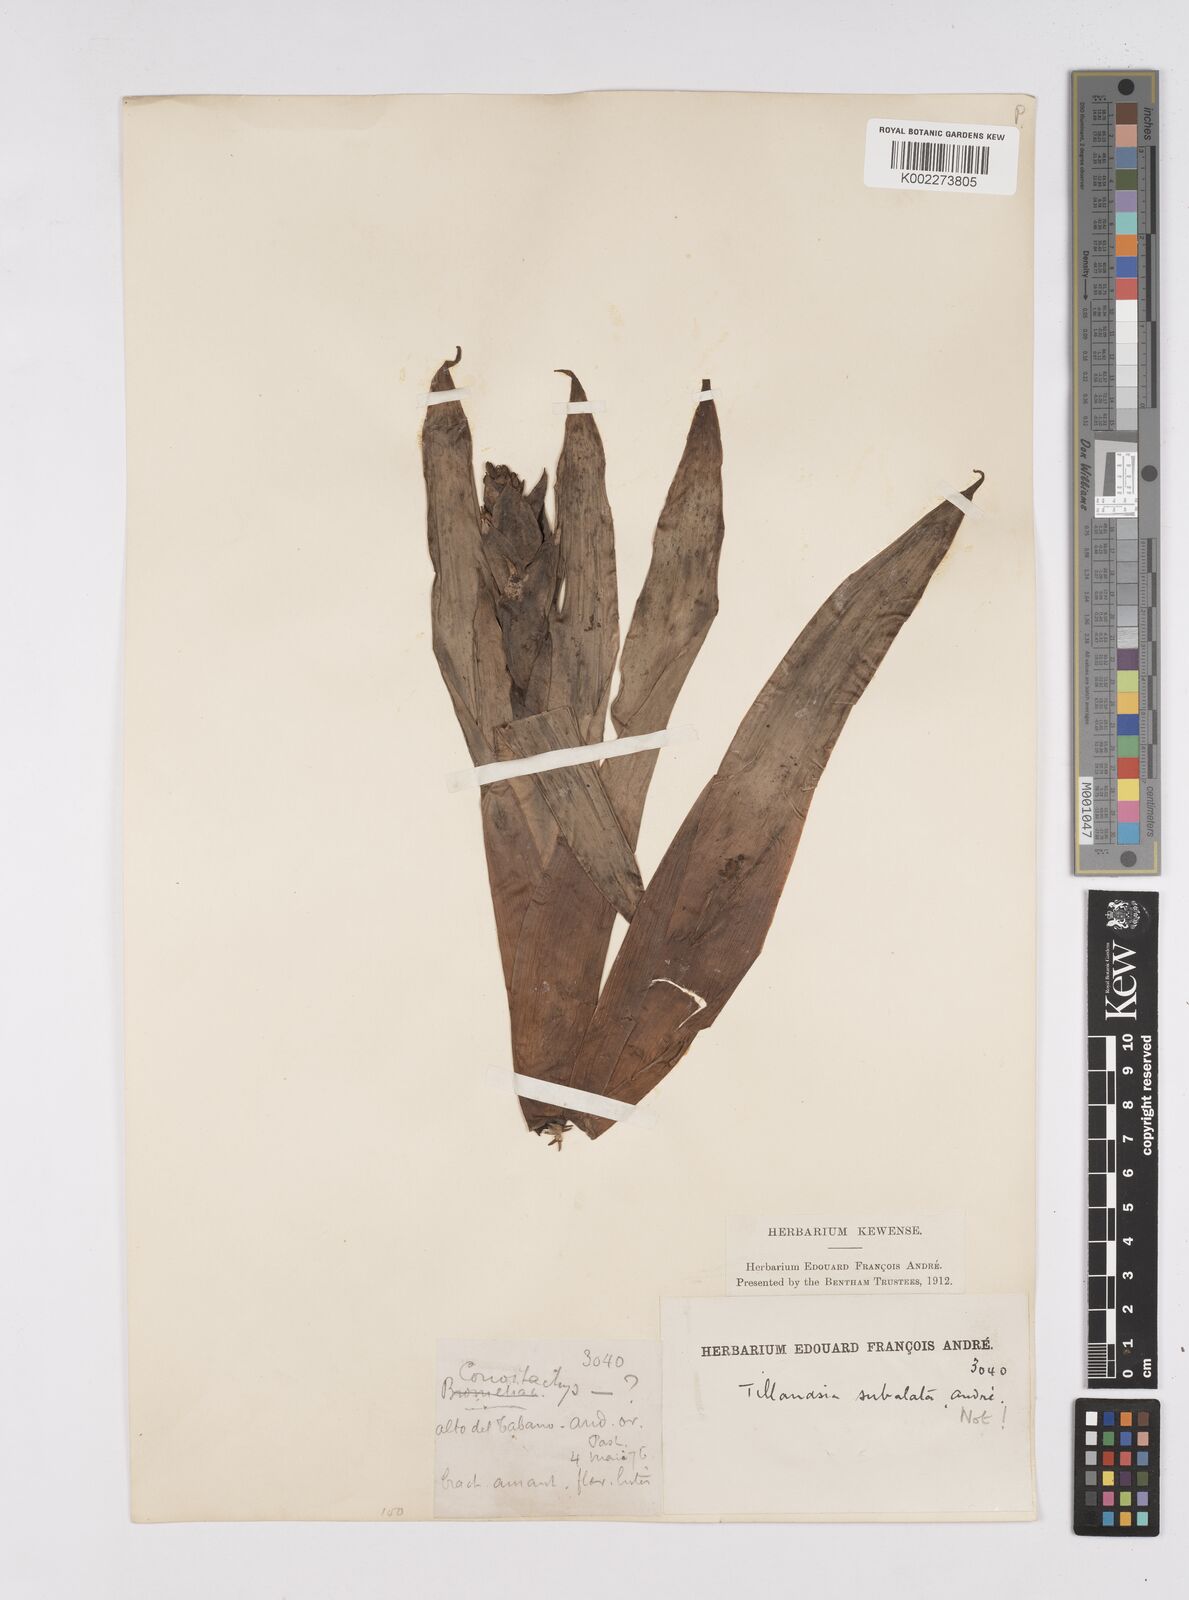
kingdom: Plantae
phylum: Tracheophyta
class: Liliopsida
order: Poales
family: Bromeliaceae
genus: Tillandsia
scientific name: Tillandsia
